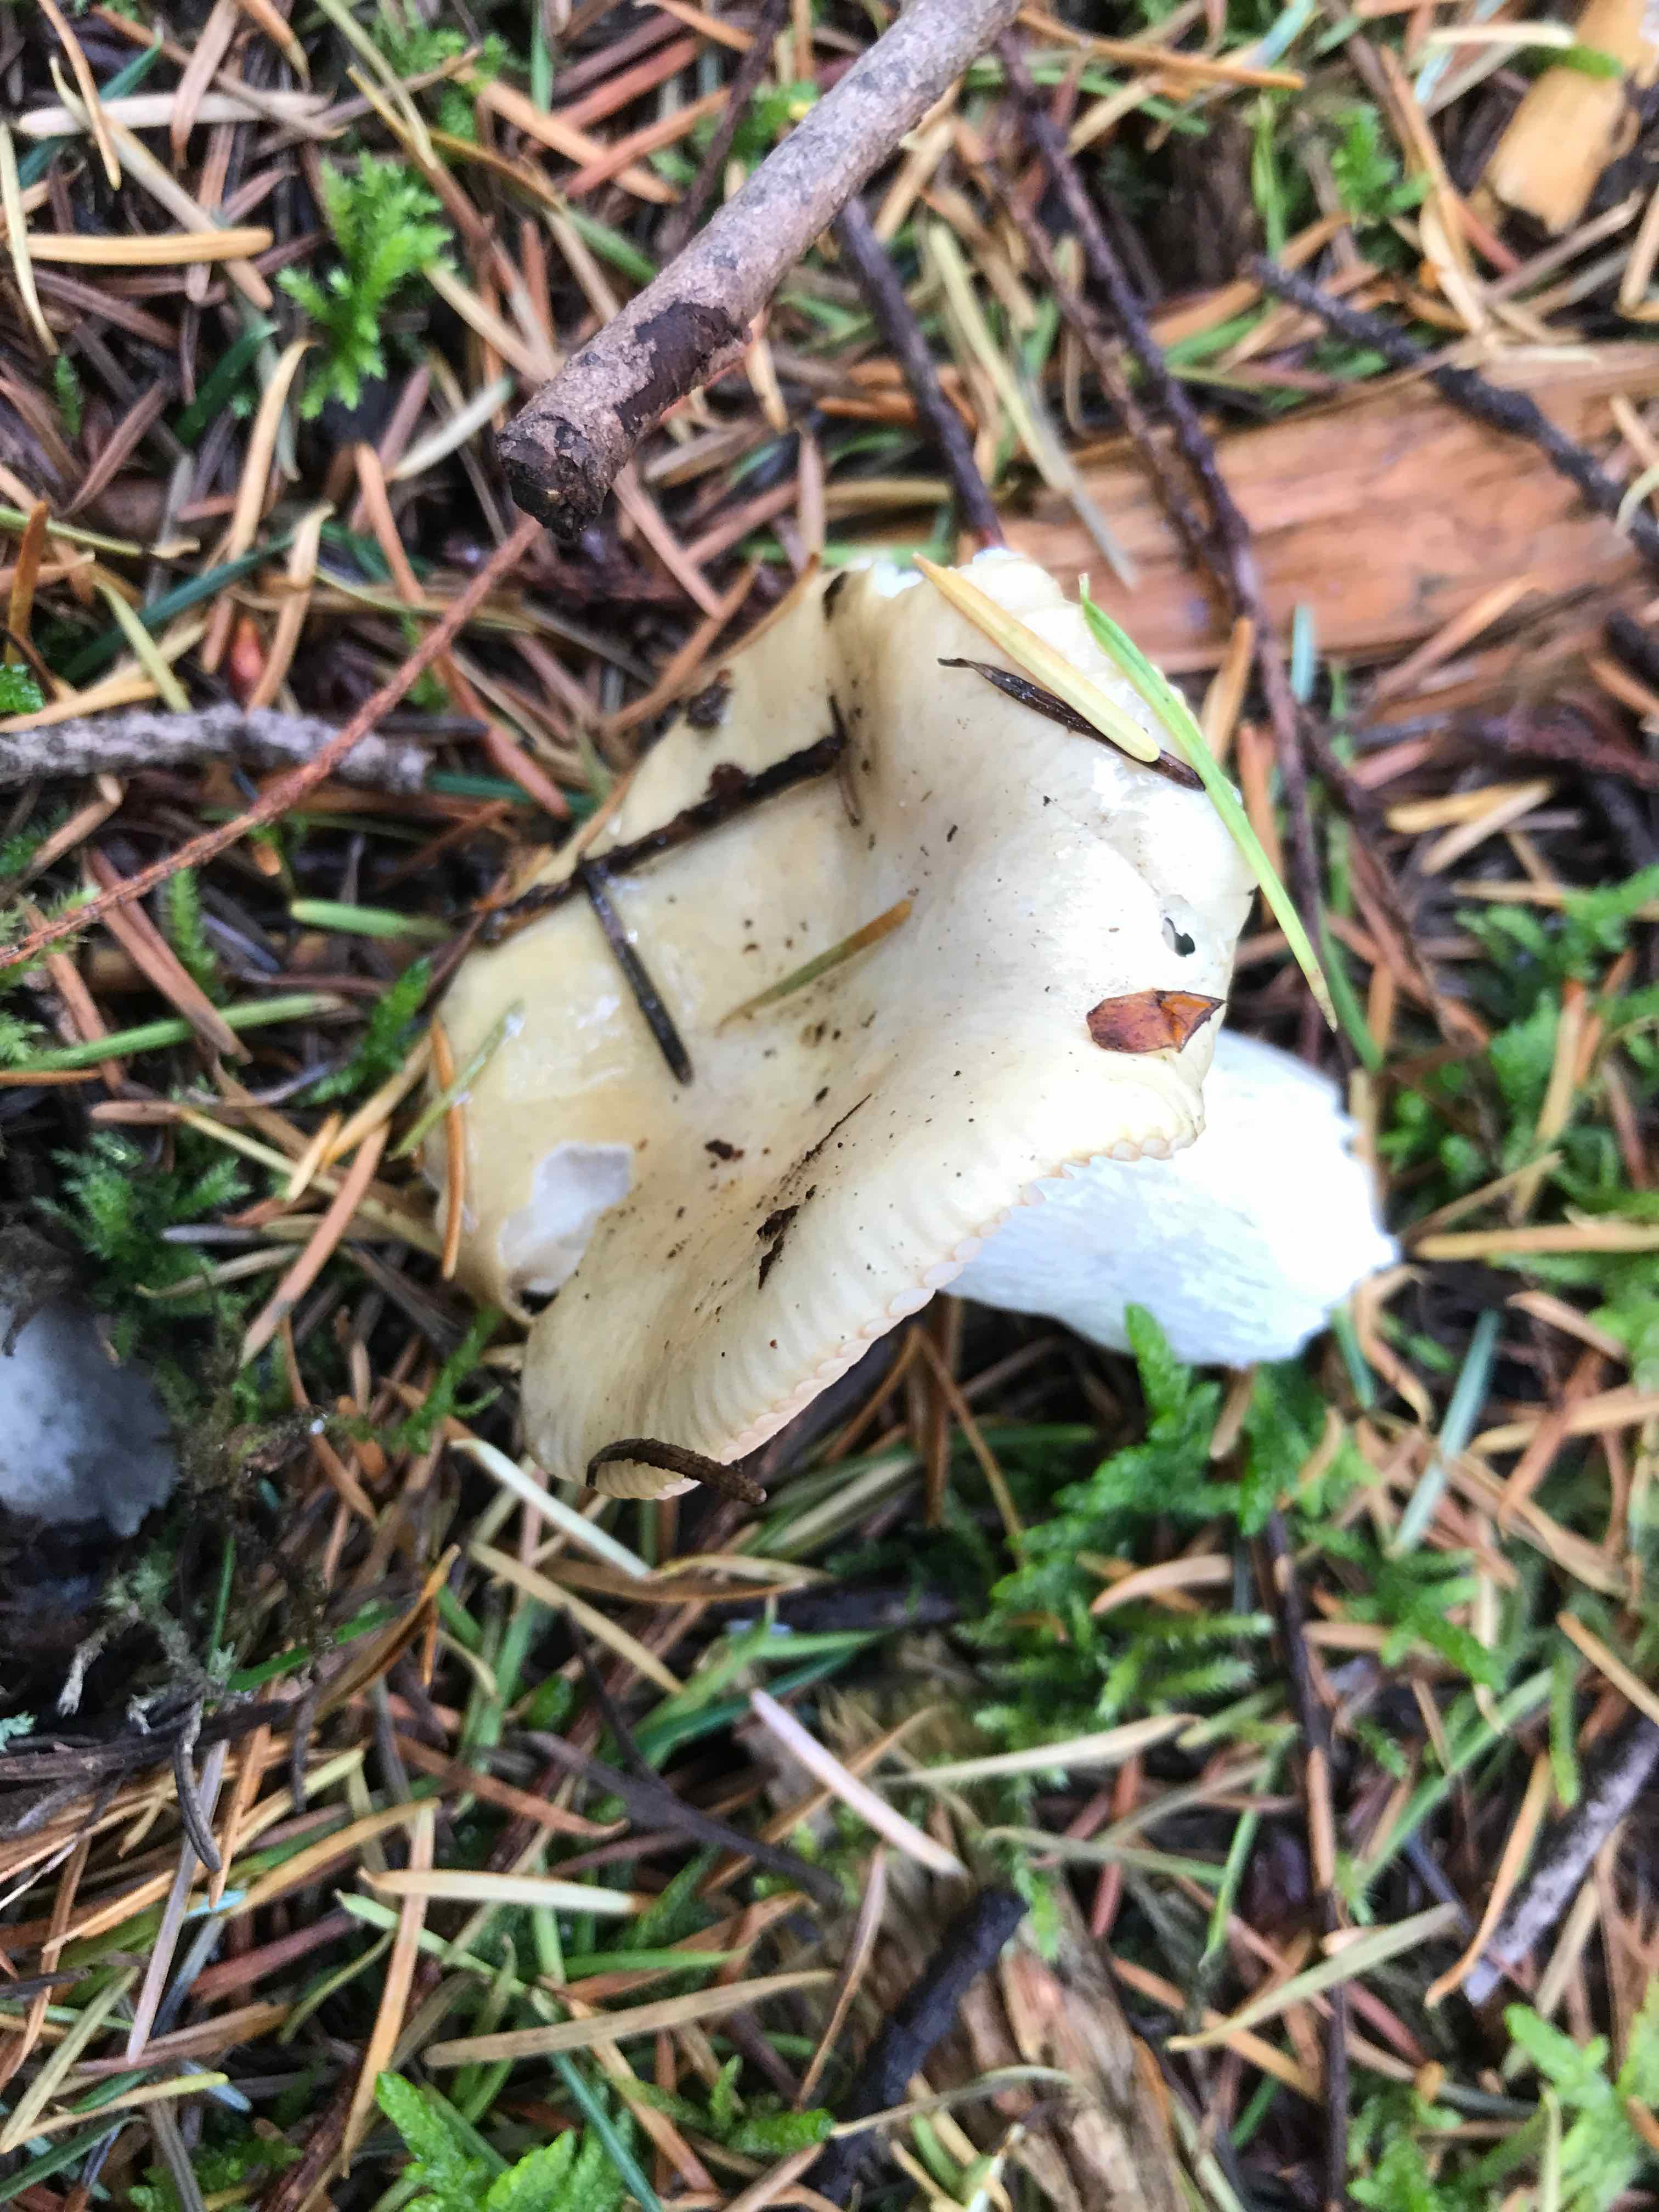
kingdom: Fungi
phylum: Basidiomycota
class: Agaricomycetes
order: Russulales
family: Russulaceae
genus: Russula
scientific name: Russula ochroleuca
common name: okkergul skørhat
